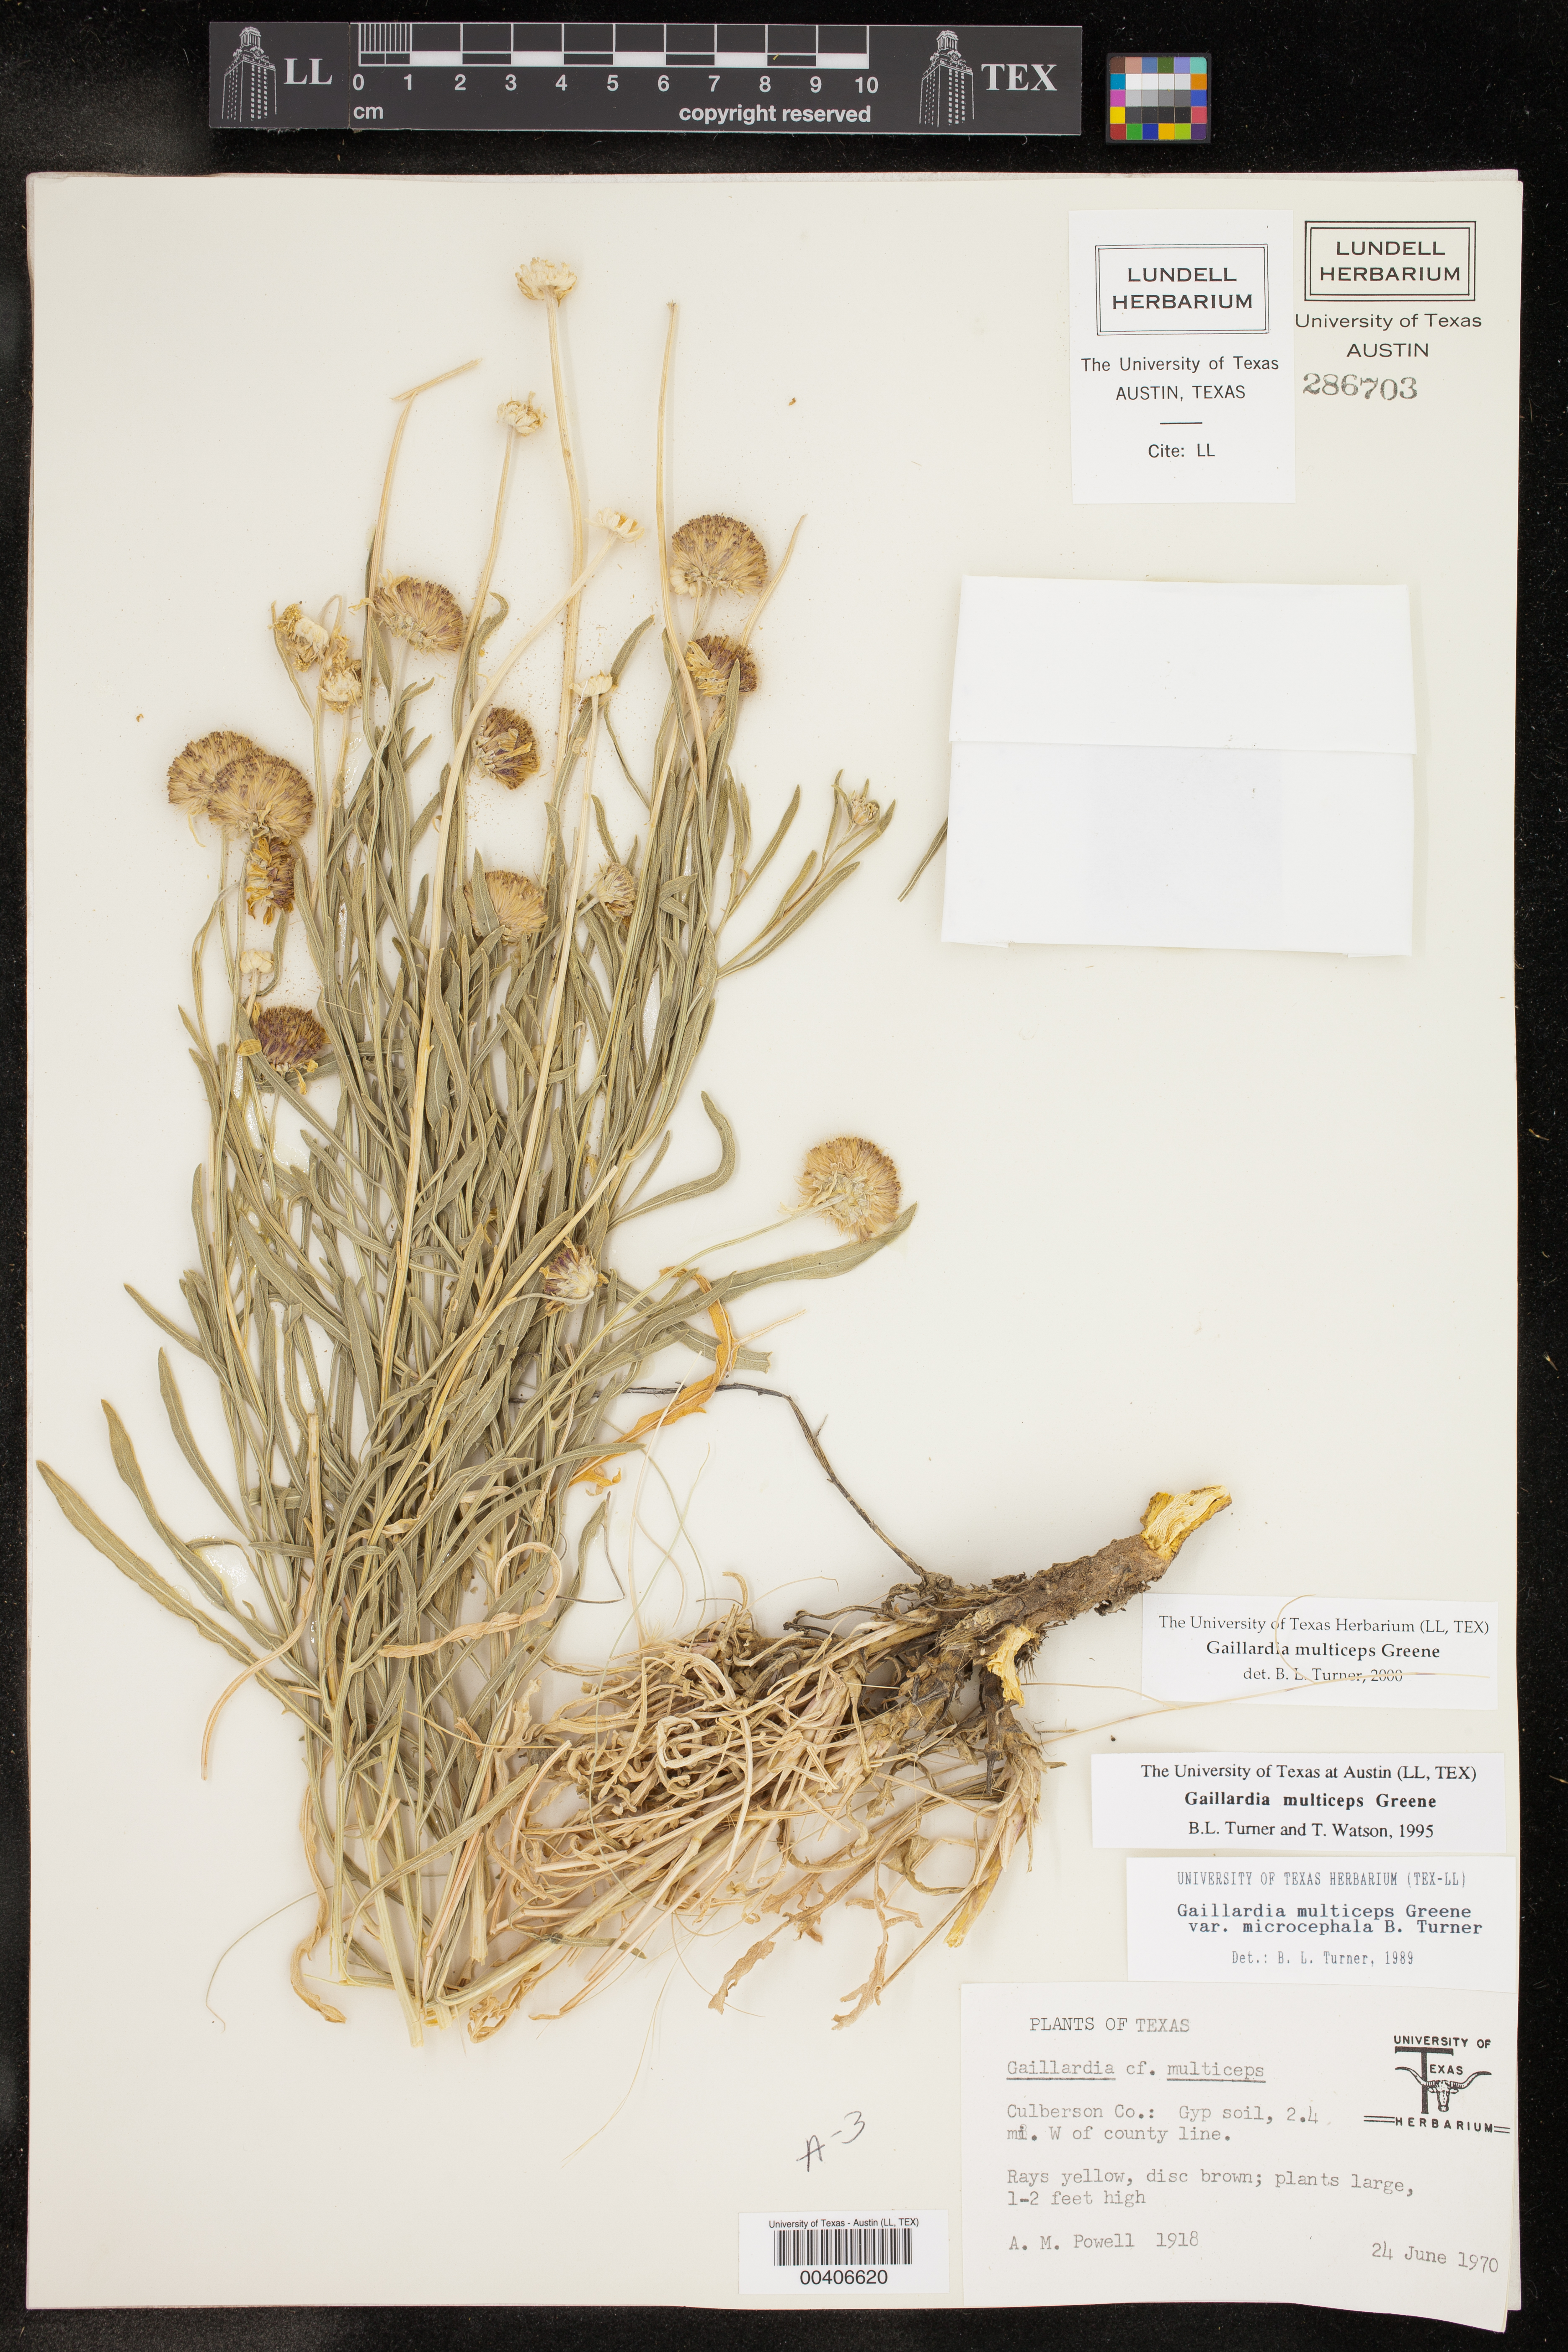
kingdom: Plantae
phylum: Tracheophyta
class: Magnoliopsida
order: Asterales
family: Asteraceae
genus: Gaillardia
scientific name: Gaillardia multiceps
